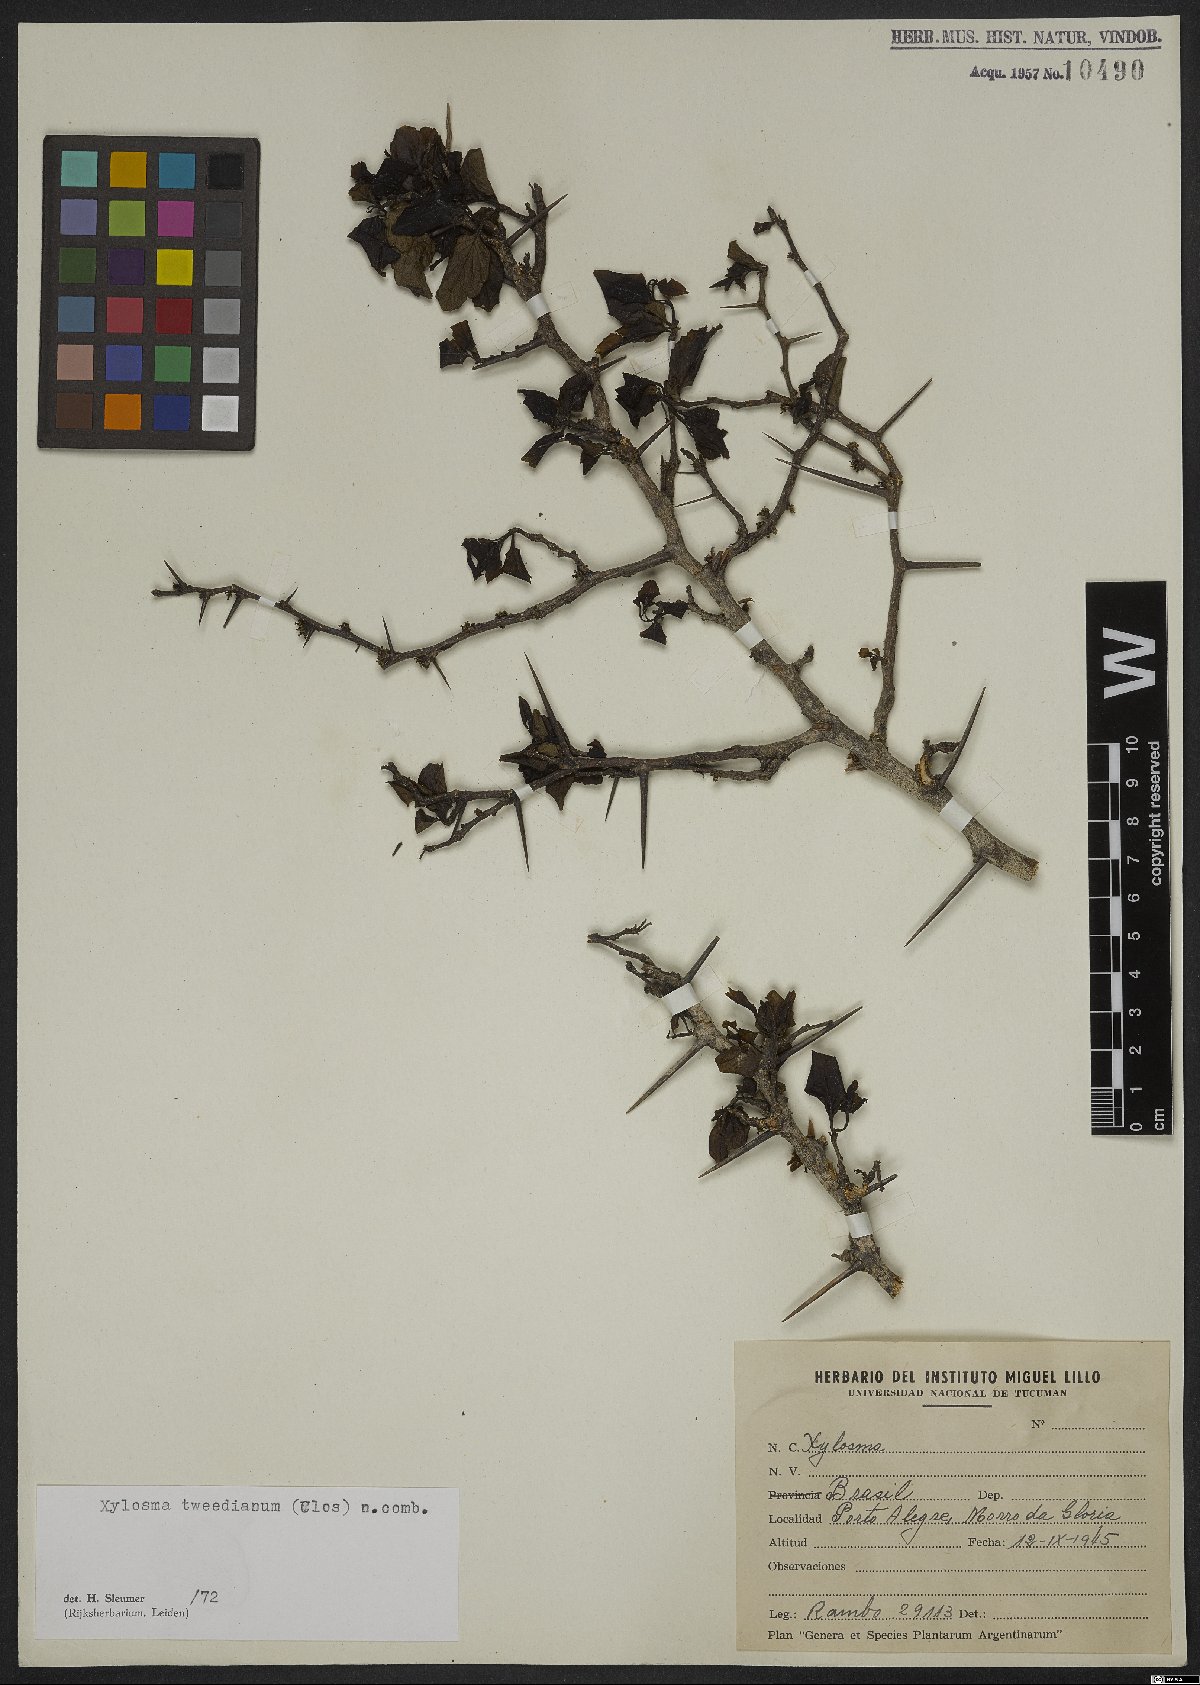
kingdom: Plantae
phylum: Tracheophyta
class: Magnoliopsida
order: Malpighiales
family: Salicaceae
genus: Xylosma
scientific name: Xylosma tweediana
